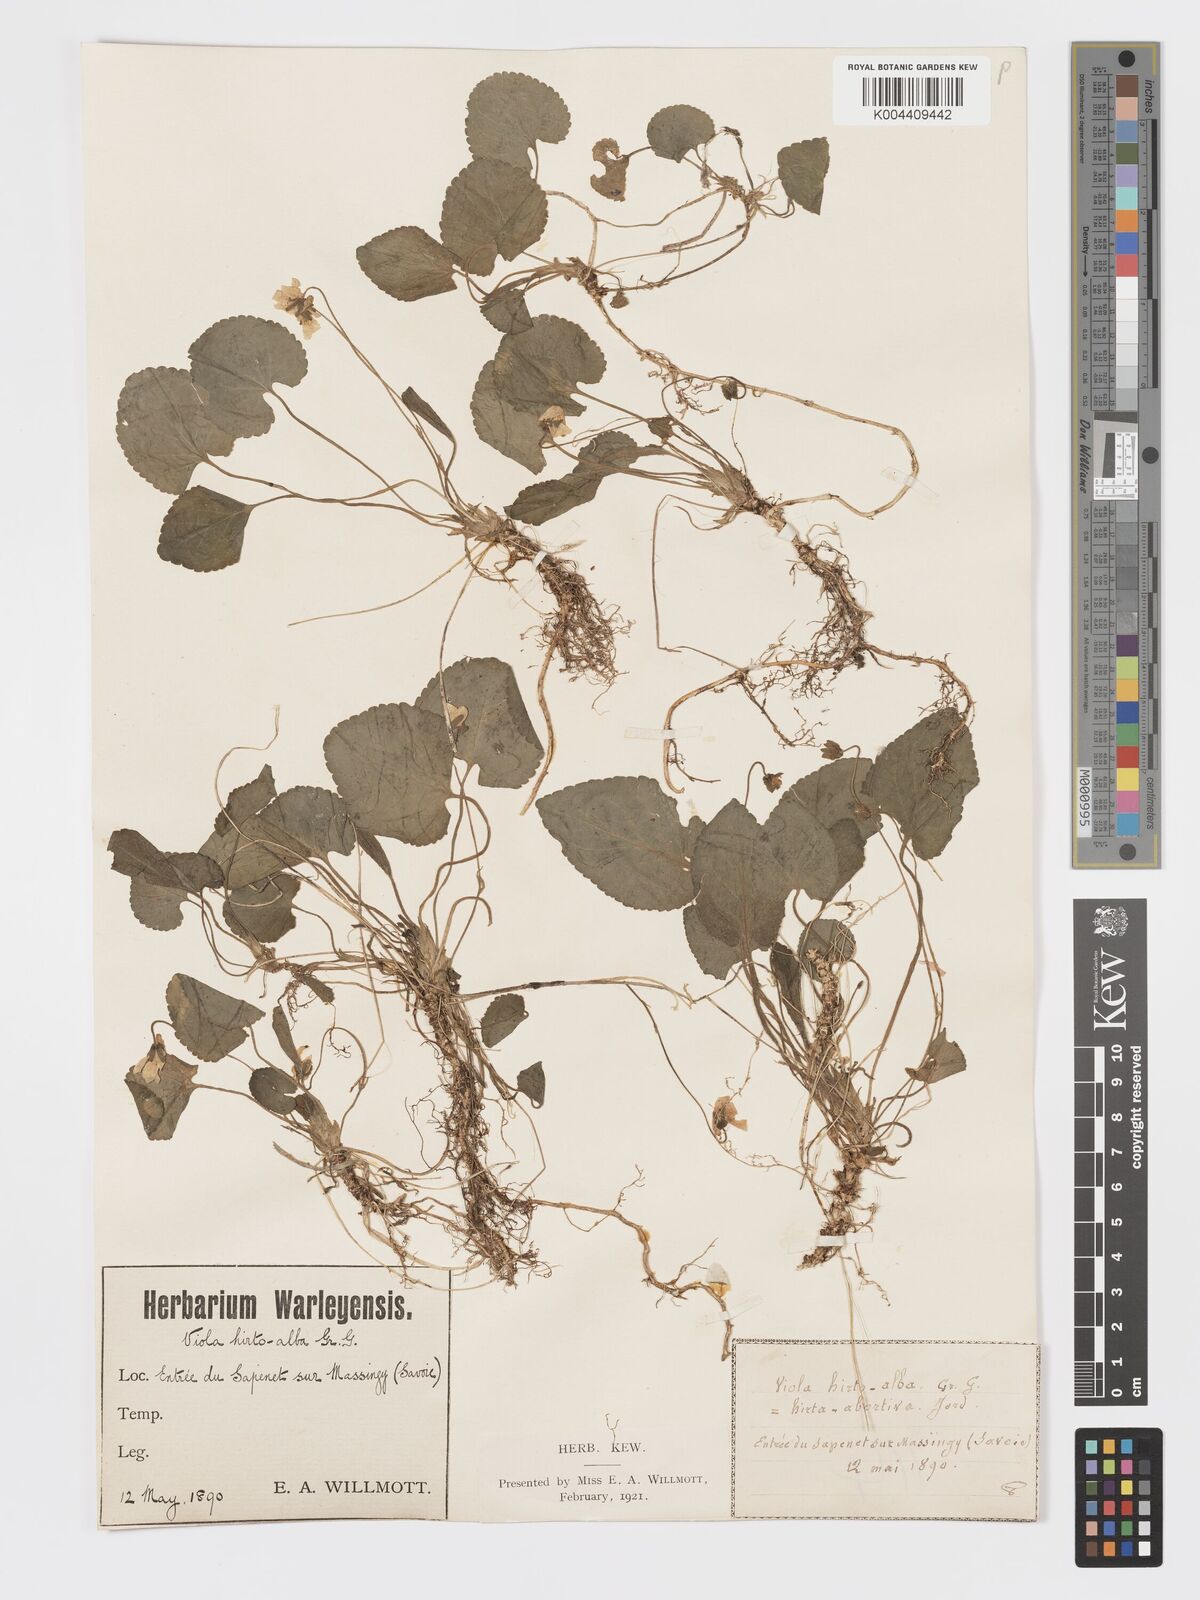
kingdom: Plantae
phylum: Tracheophyta
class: Magnoliopsida
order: Malpighiales
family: Violaceae
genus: Viola
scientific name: Viola alba
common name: White violet
